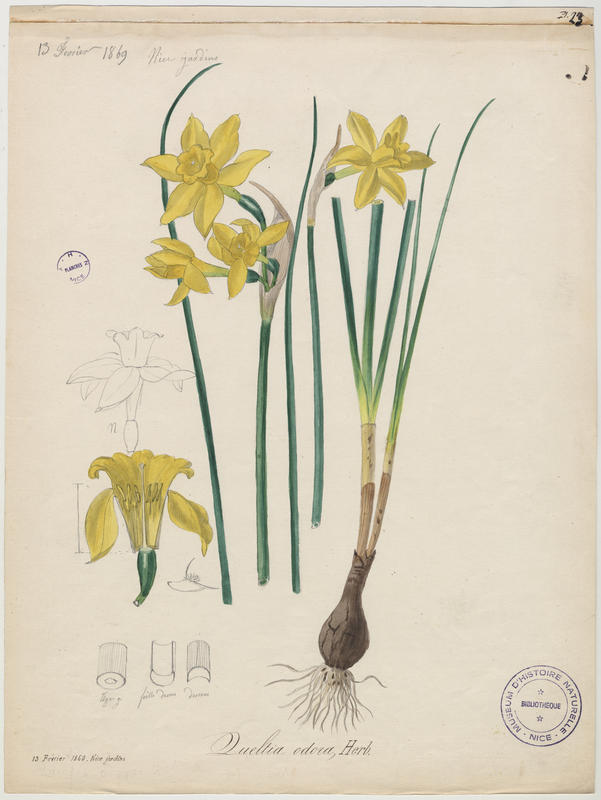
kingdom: Plantae
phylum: Tracheophyta
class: Liliopsida
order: Asparagales
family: Amaryllidaceae
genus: Narcissus
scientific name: Narcissus odorus
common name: Campernelle jonquil
